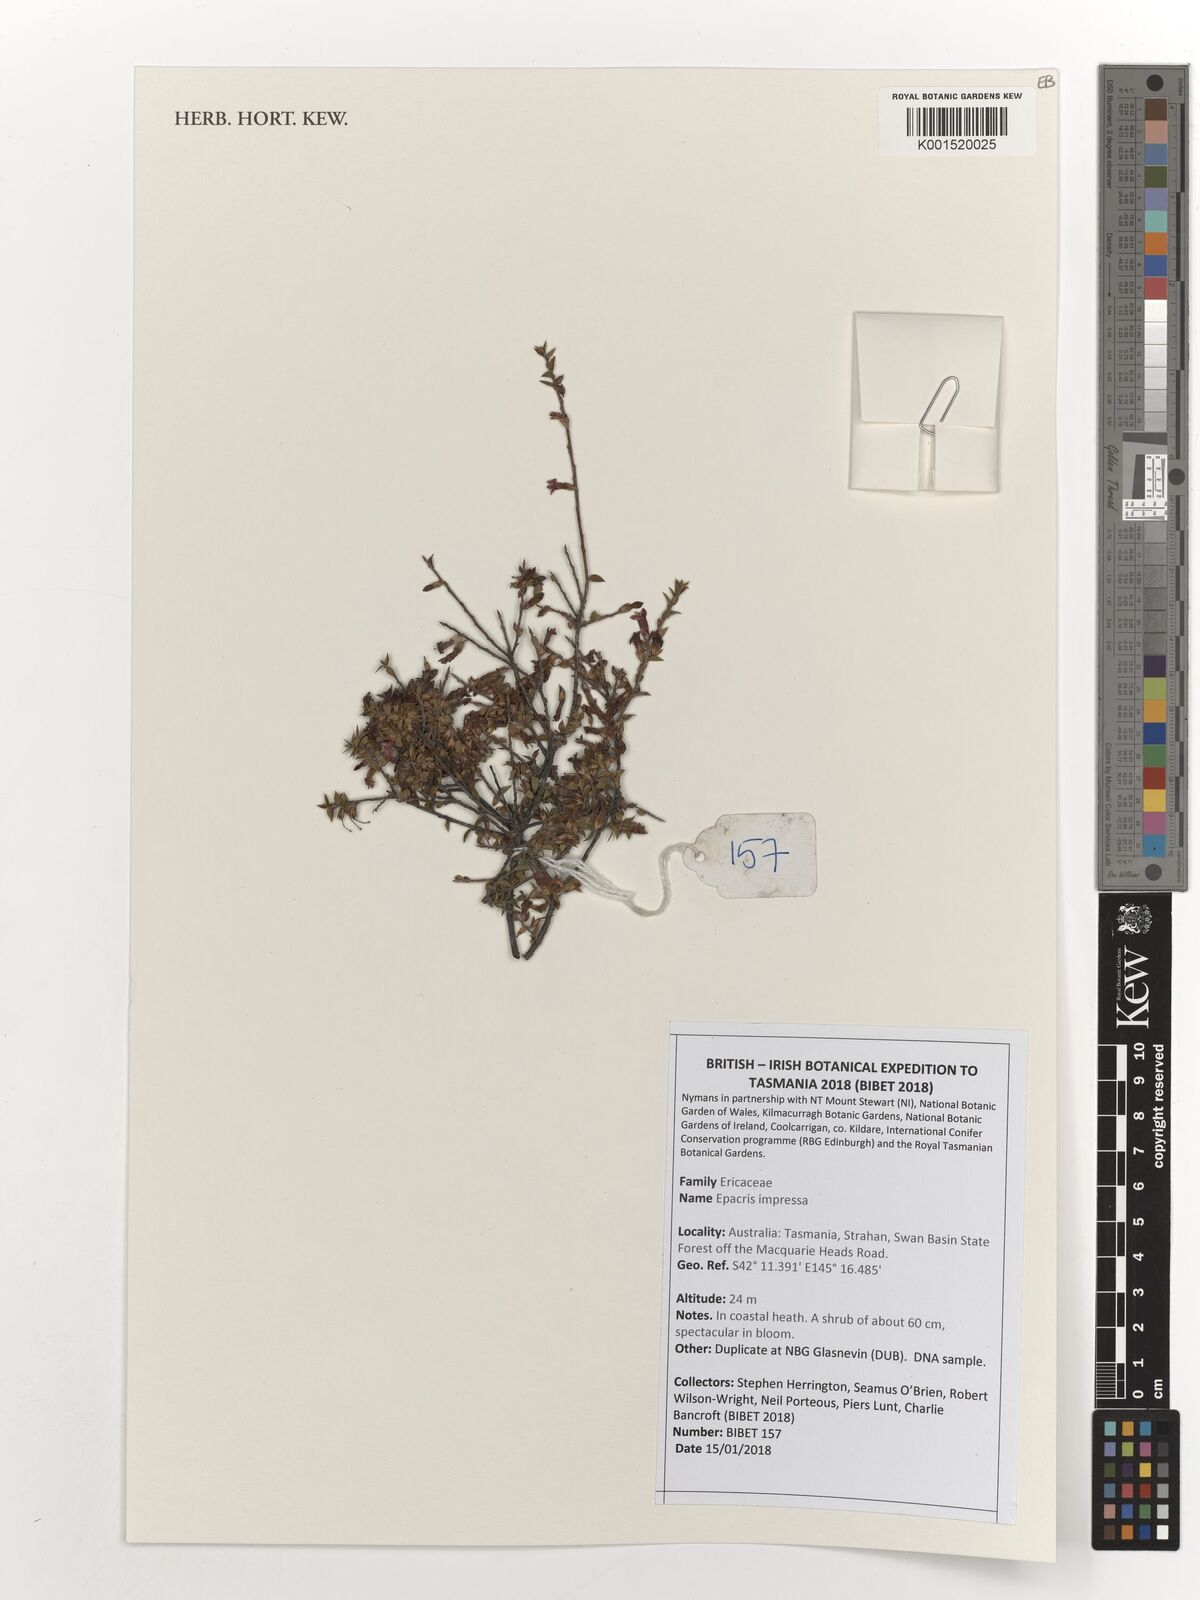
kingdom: Plantae
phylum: Tracheophyta
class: Magnoliopsida
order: Ericales
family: Ericaceae
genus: Epacris
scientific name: Epacris impressa
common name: Common-heath
